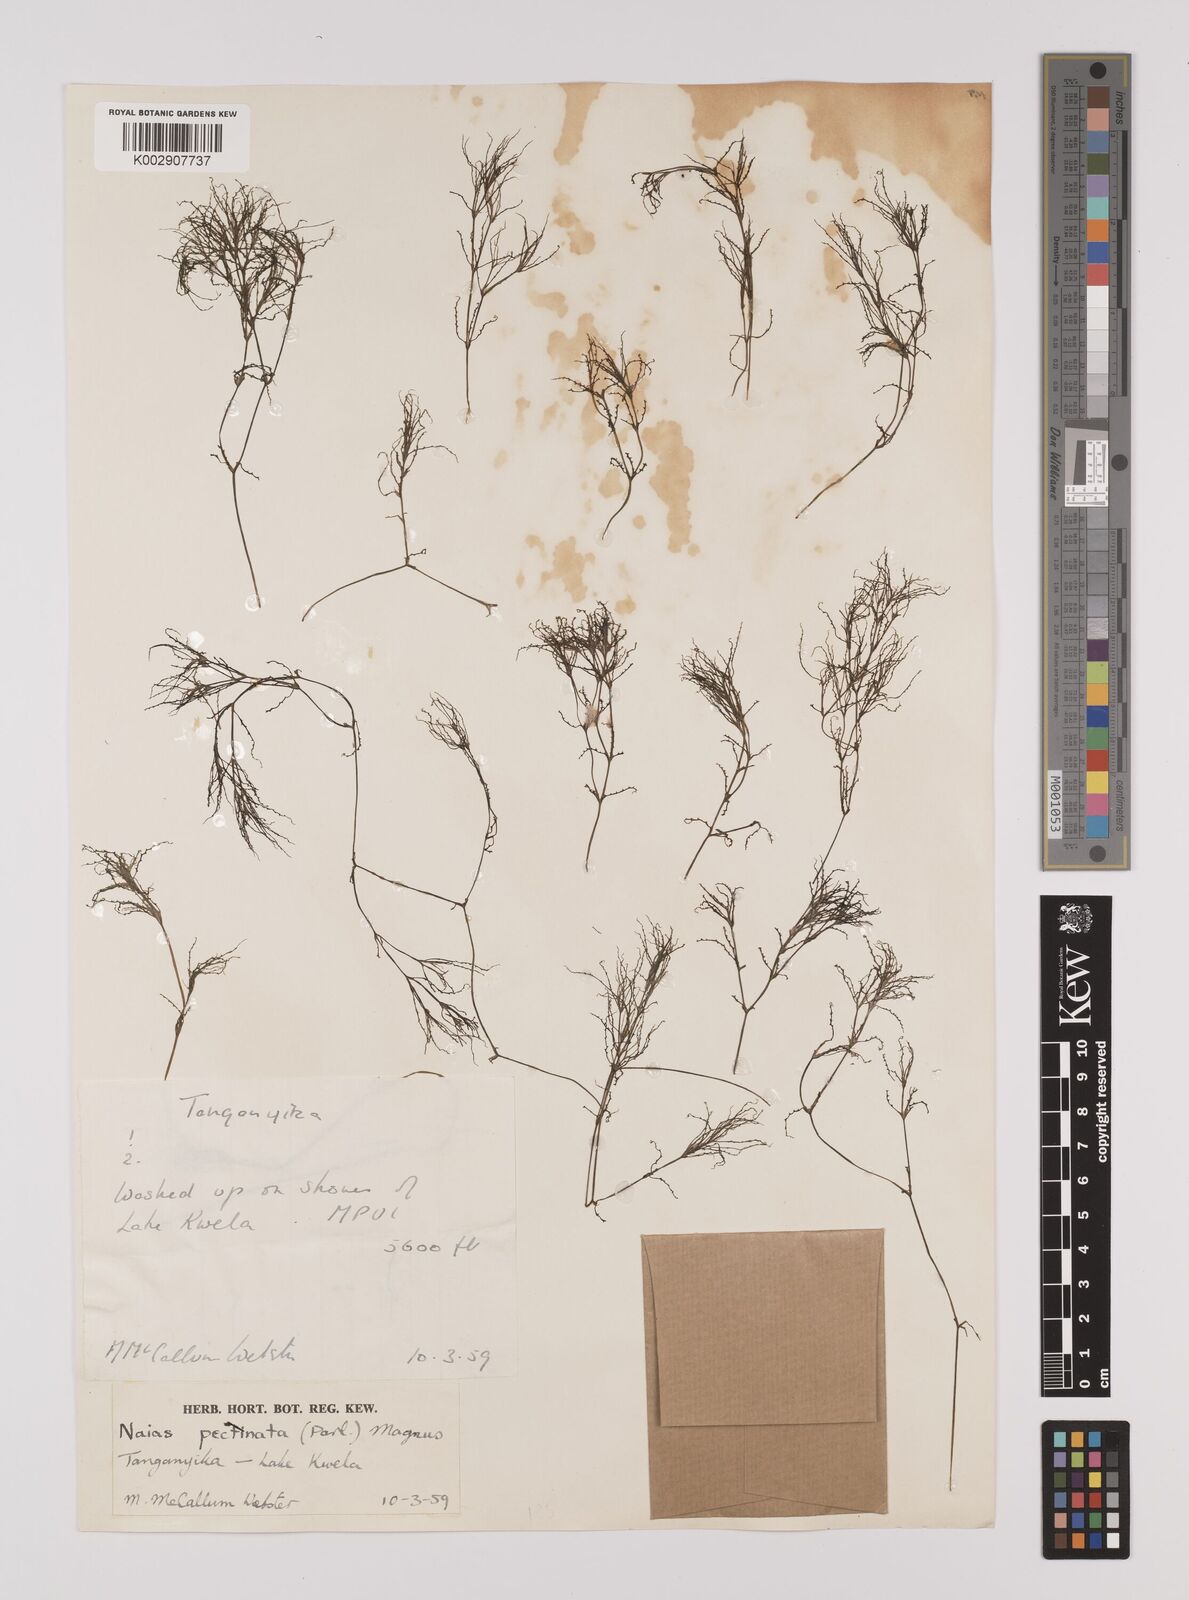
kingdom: Plantae
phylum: Tracheophyta
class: Liliopsida
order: Alismatales
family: Hydrocharitaceae
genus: Najas
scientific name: Najas horrida
